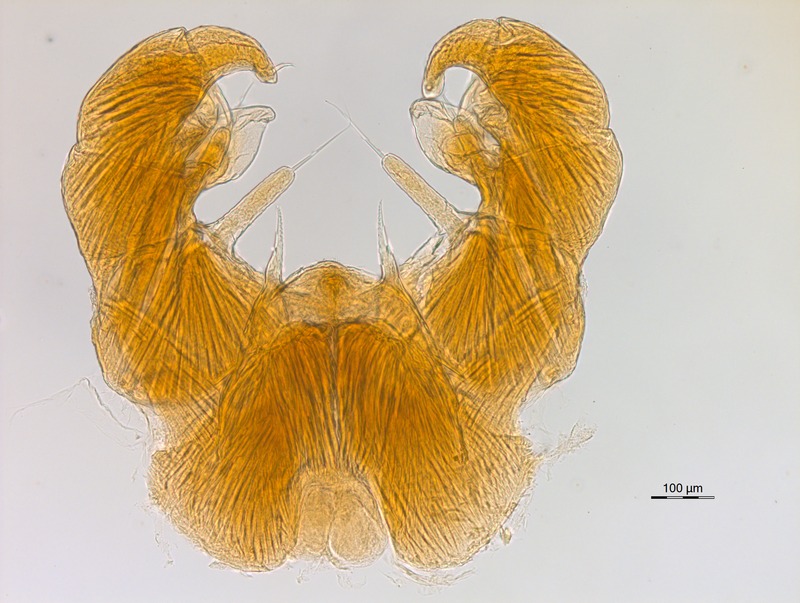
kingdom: Animalia
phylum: Arthropoda
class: Diplopoda
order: Glomerida
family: Glomeridae
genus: Trachysphaera
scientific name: Trachysphaera apenninorum
